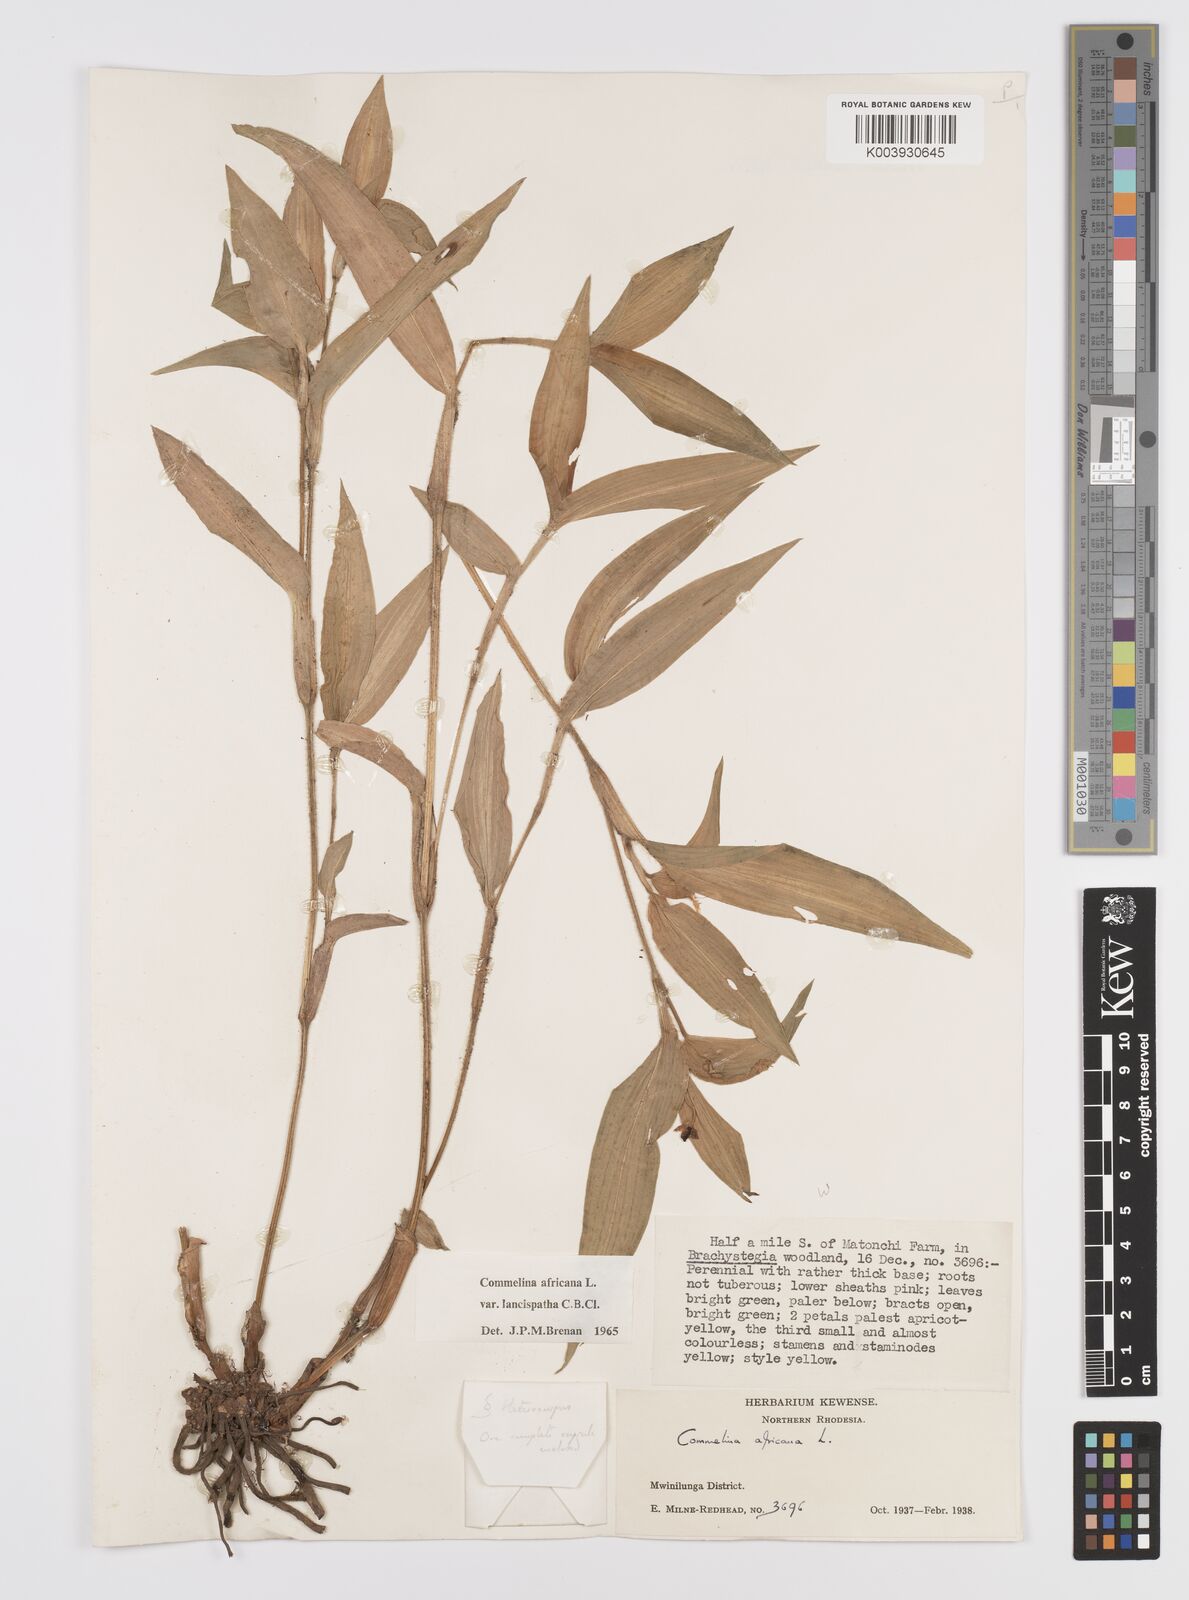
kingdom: Plantae
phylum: Tracheophyta
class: Liliopsida
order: Commelinales
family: Commelinaceae
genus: Commelina
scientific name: Commelina africana
